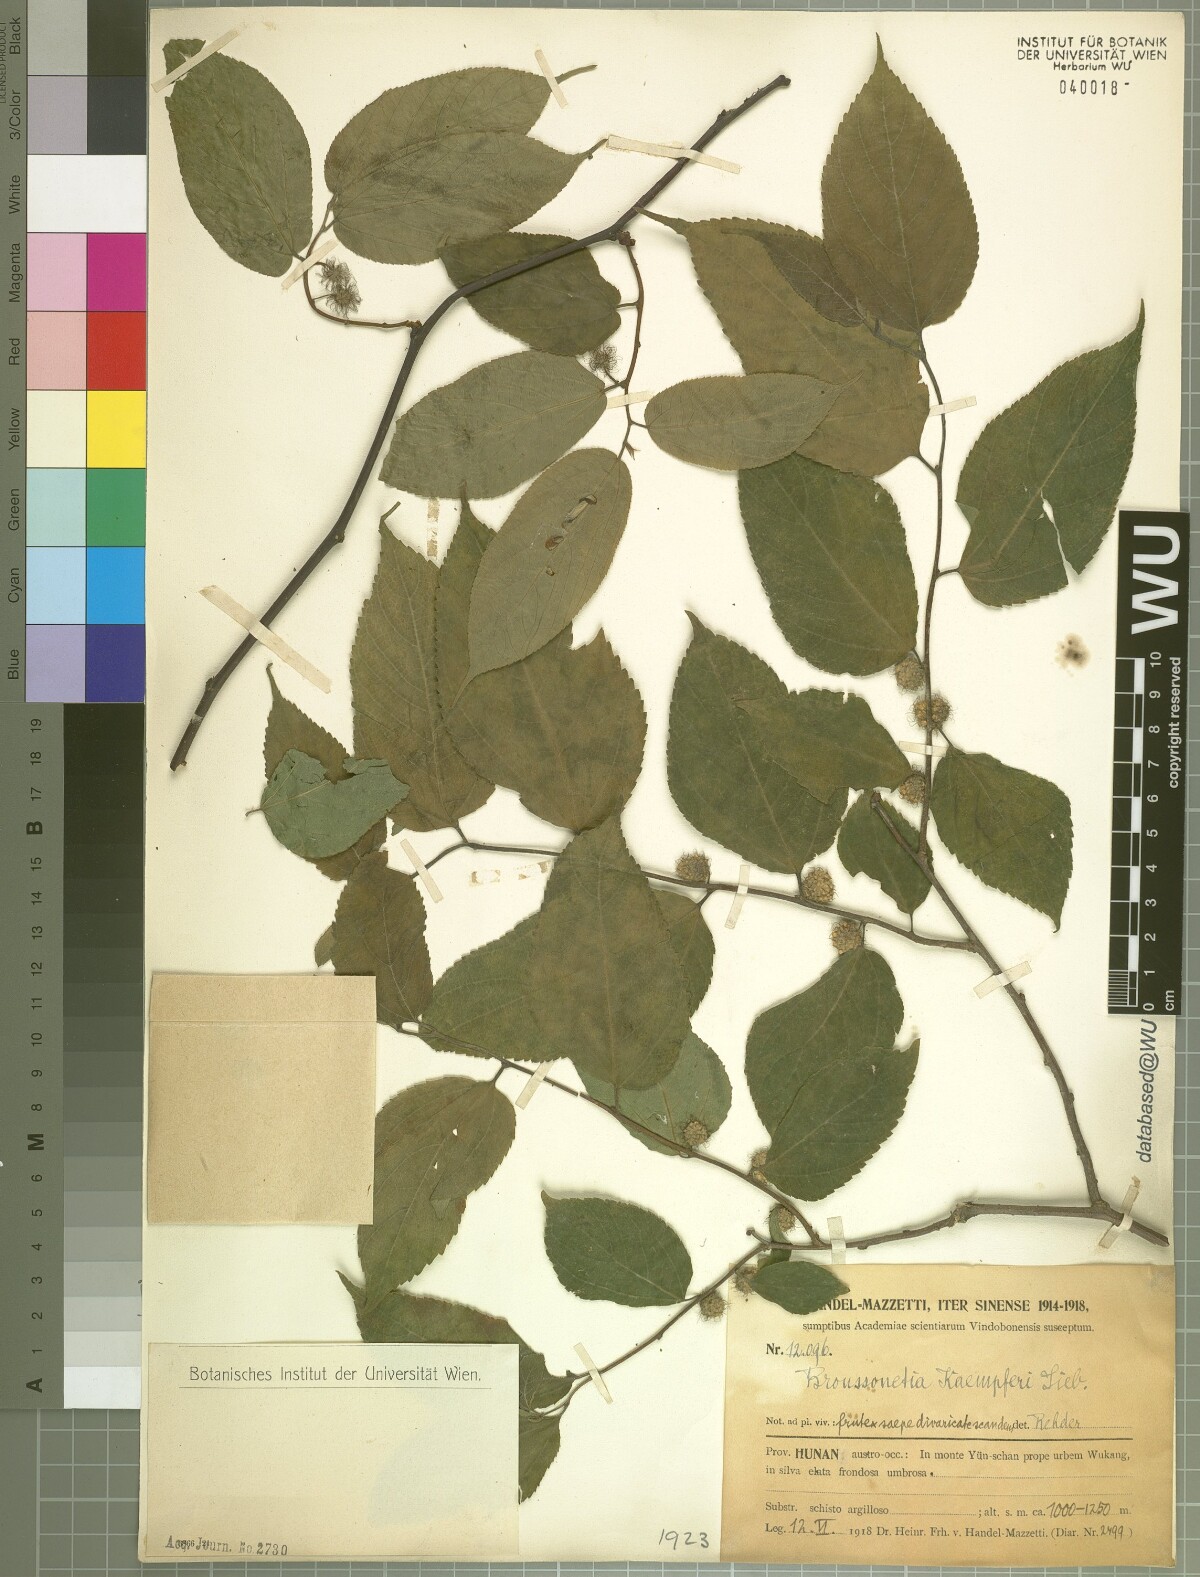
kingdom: Plantae
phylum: Tracheophyta
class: Magnoliopsida
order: Rosales
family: Moraceae
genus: Broussonetia
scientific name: Broussonetia kaempferi
